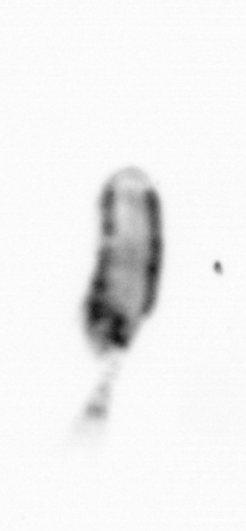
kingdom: Animalia
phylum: Arthropoda
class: Copepoda
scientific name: Copepoda
